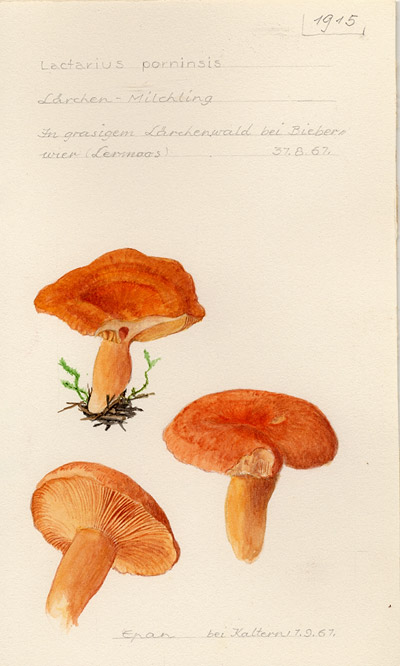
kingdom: Fungi
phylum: Basidiomycota
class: Agaricomycetes
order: Russulales
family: Russulaceae
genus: Lactarius
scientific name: Lactarius porninsis
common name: Larch milkcap
